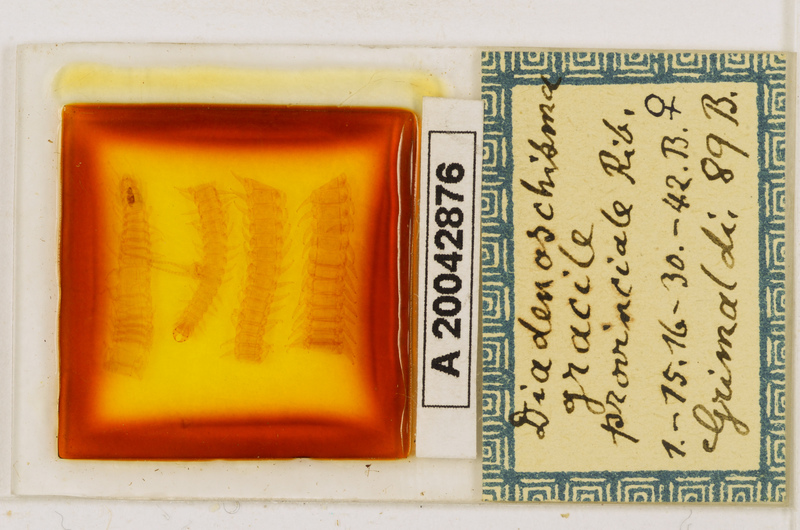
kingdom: Animalia
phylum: Arthropoda
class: Chilopoda
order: Geophilomorpha
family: Himantariidae
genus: Stigmatogaster
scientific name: Stigmatogaster
